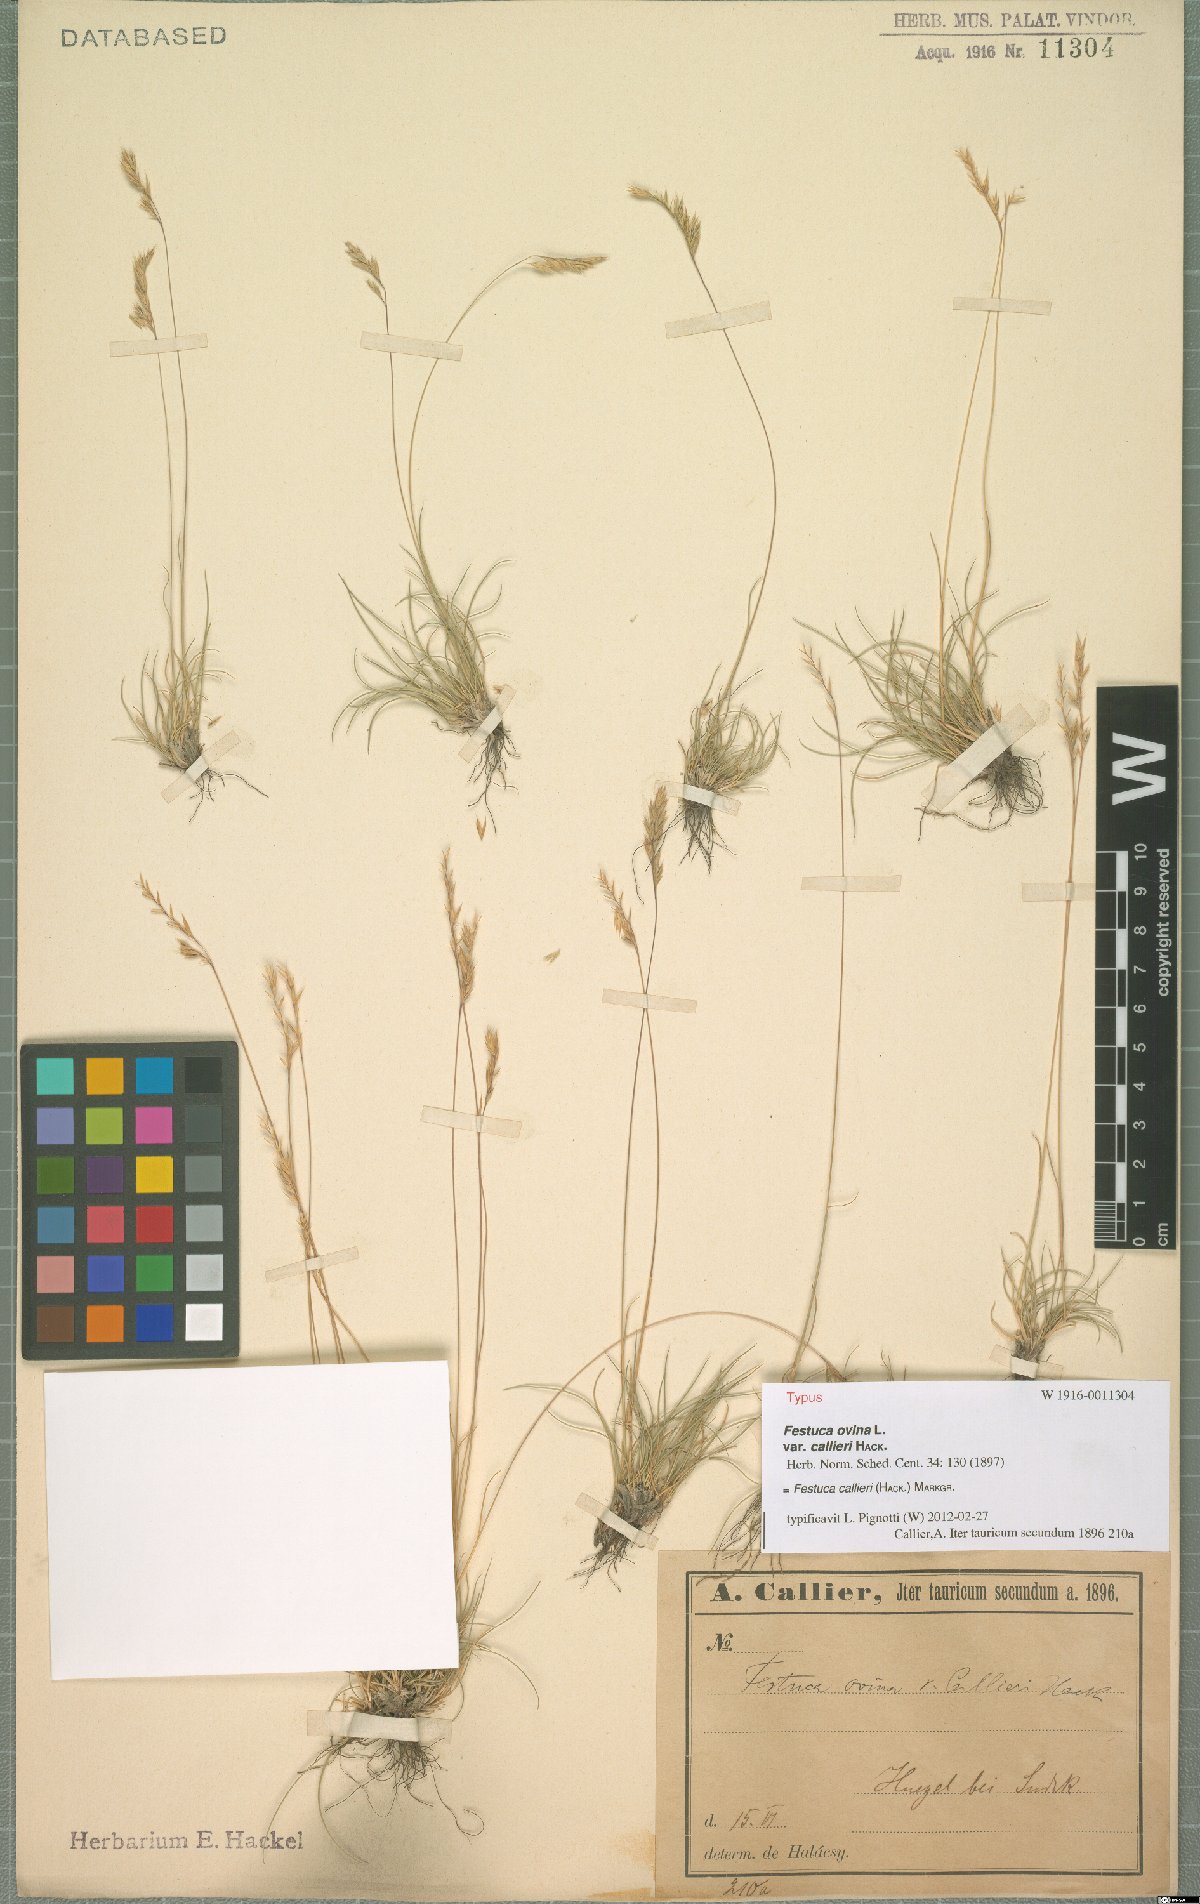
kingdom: Plantae
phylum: Tracheophyta
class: Liliopsida
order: Poales
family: Poaceae
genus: Festuca
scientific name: Festuca callieri
